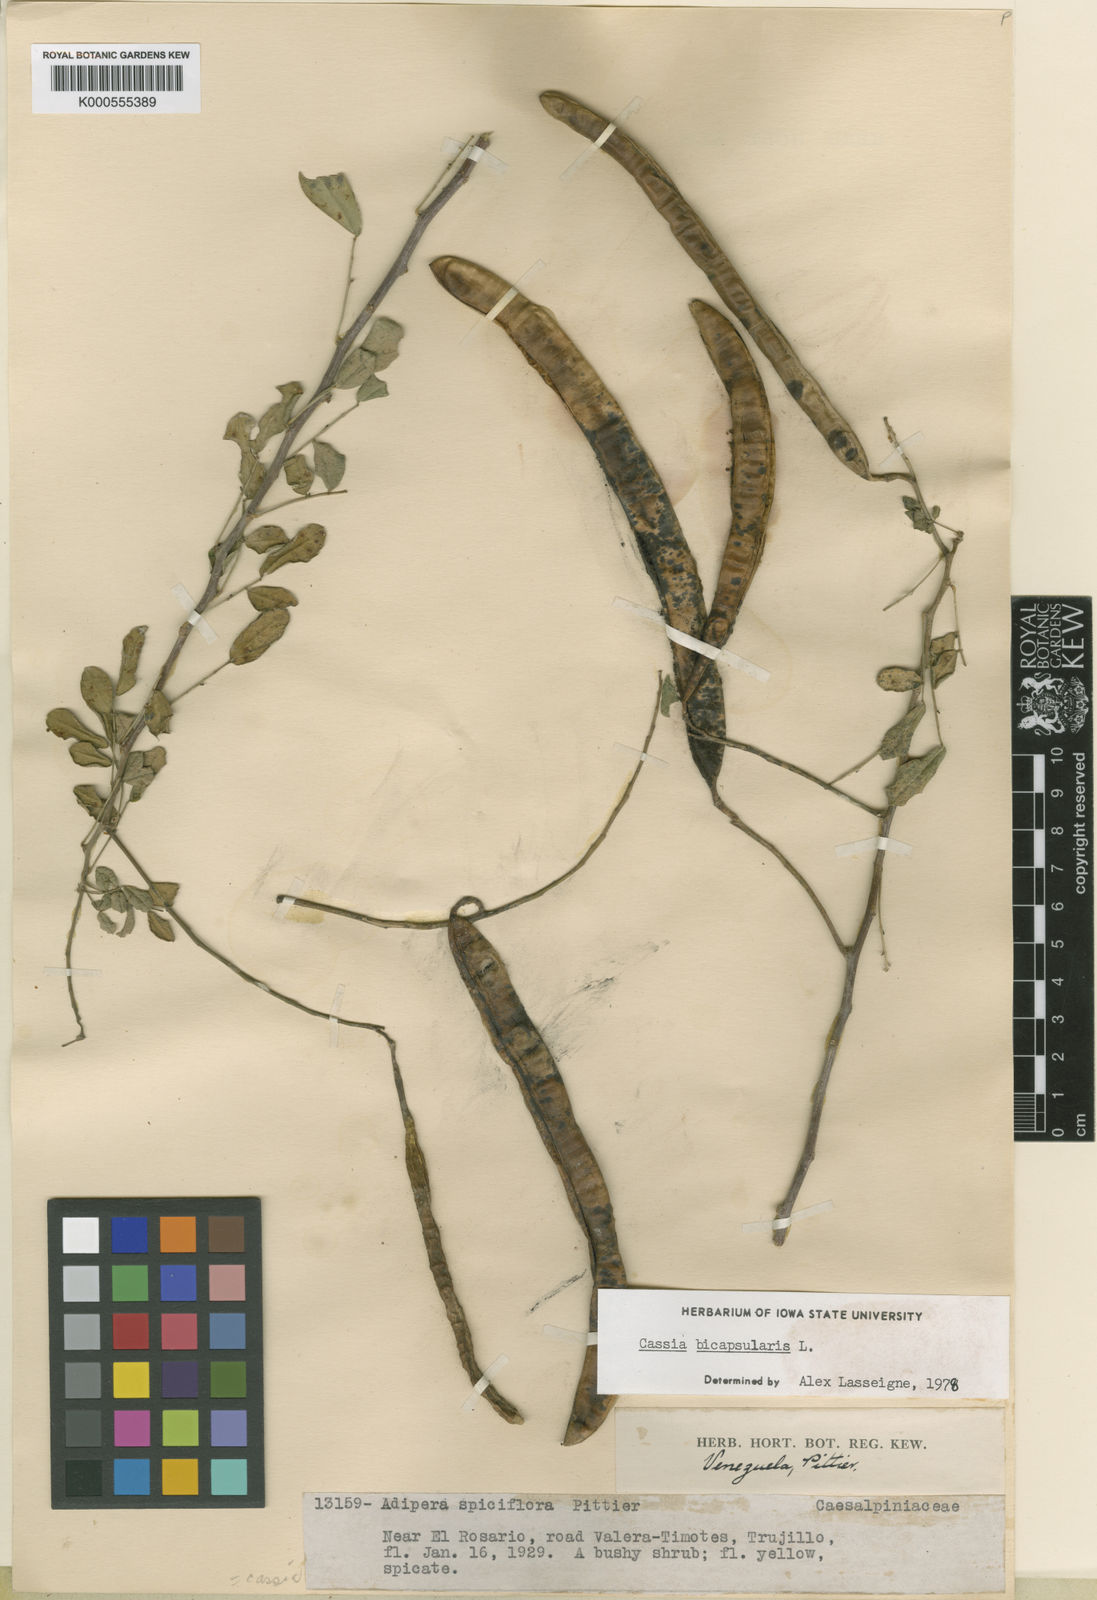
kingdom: Plantae
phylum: Tracheophyta
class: Magnoliopsida
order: Fabales
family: Fabaceae
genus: Senna
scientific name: Senna bicapsularis
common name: Christmasbush
